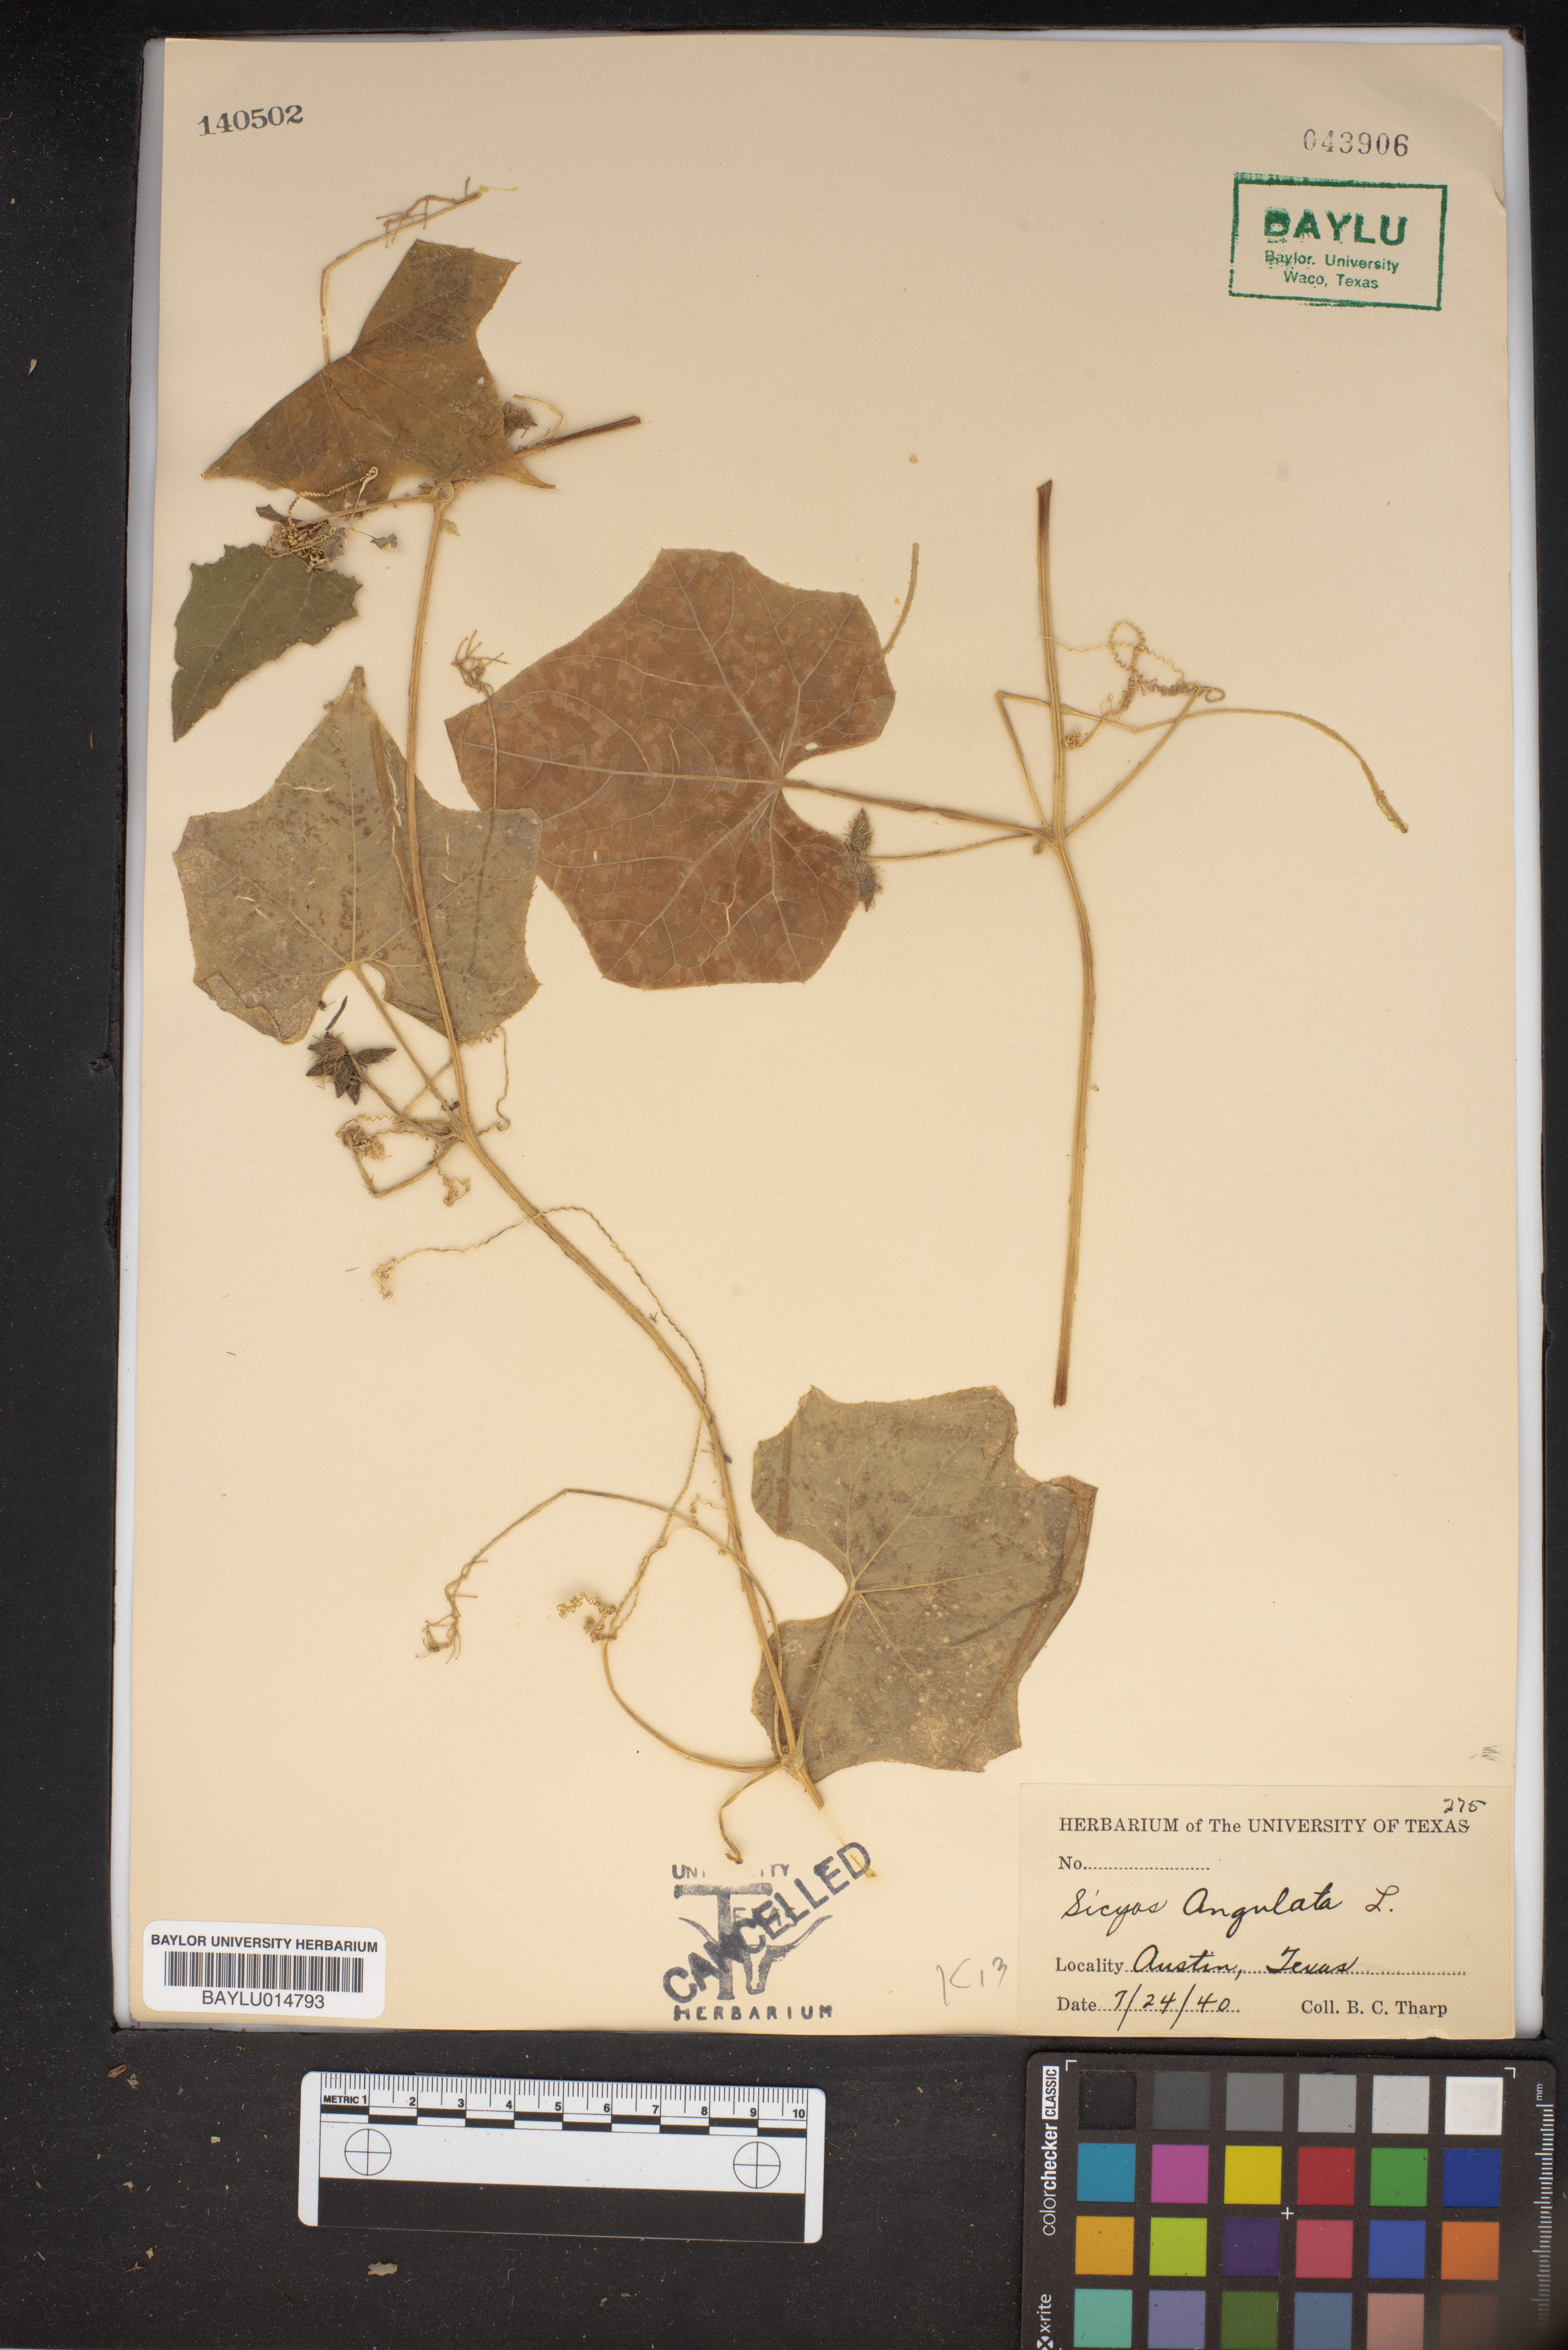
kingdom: Plantae
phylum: Tracheophyta
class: Magnoliopsida
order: Cucurbitales
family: Cucurbitaceae
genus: Sicyos
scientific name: Sicyos angulatus
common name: Angled burr cucumber
